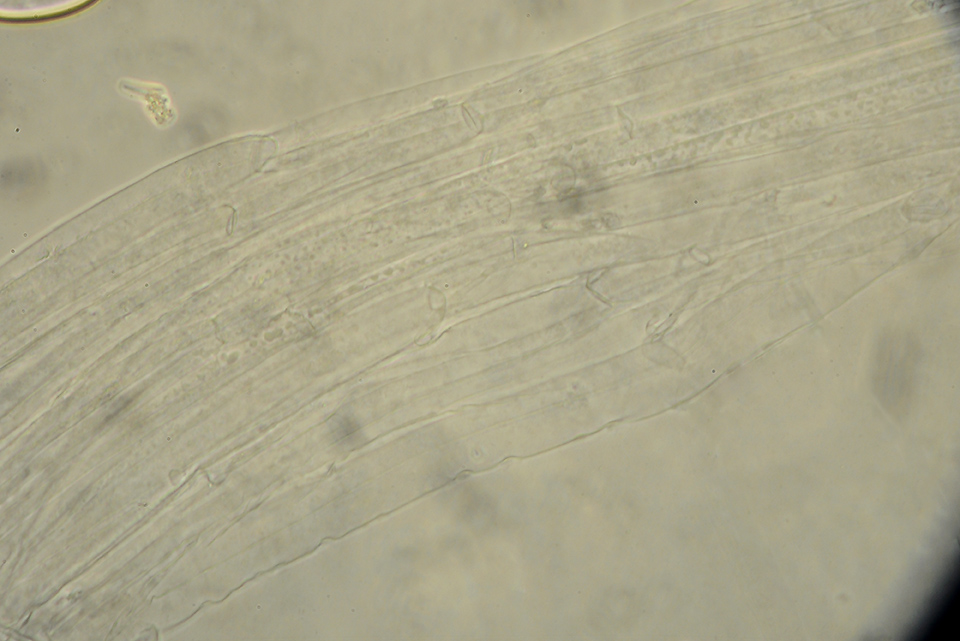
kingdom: Fungi
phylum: Basidiomycota
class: Agaricomycetes
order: Agaricales
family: Psathyrellaceae
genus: Coprinellus
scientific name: Coprinellus saccharinus
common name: sukker-blækhat
